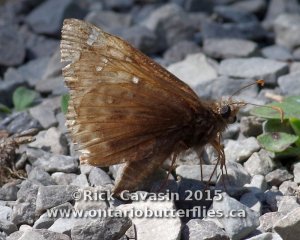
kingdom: Animalia
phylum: Arthropoda
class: Insecta
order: Lepidoptera
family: Hesperiidae
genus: Gesta
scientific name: Gesta
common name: Juvenal's Duskywing
